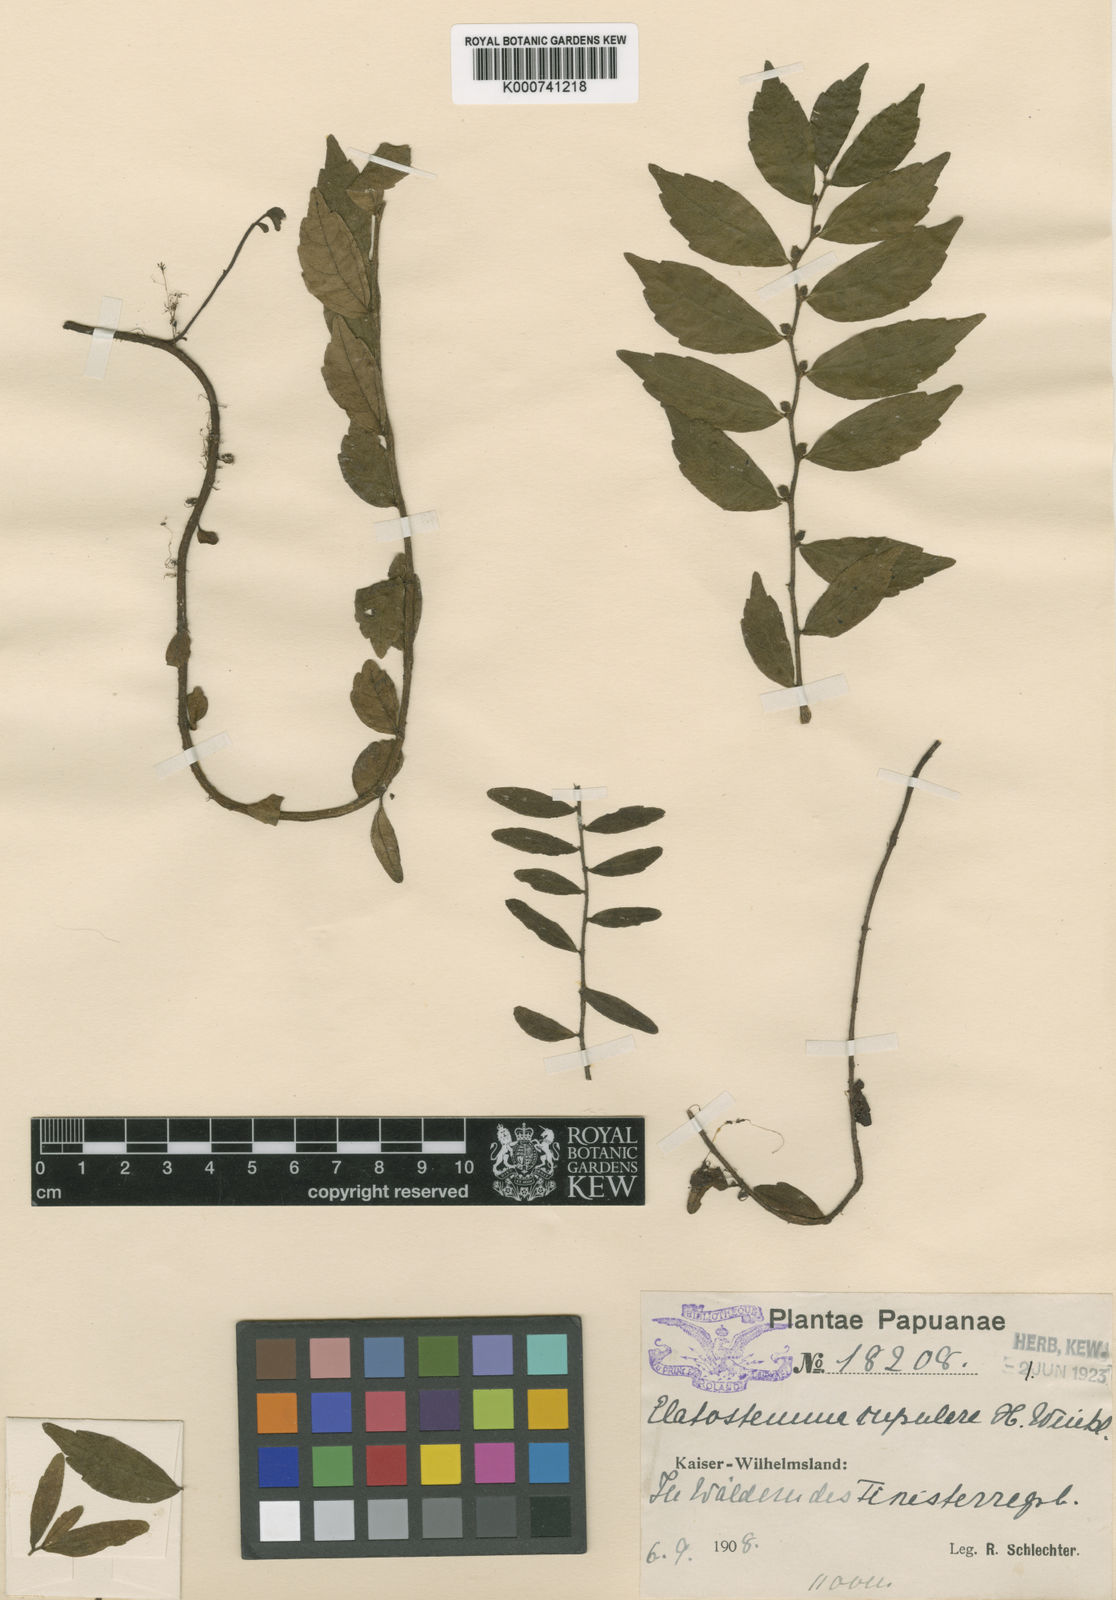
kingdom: Plantae
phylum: Tracheophyta
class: Magnoliopsida
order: Rosales
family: Urticaceae
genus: Elatostema
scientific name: Elatostema cupulare
